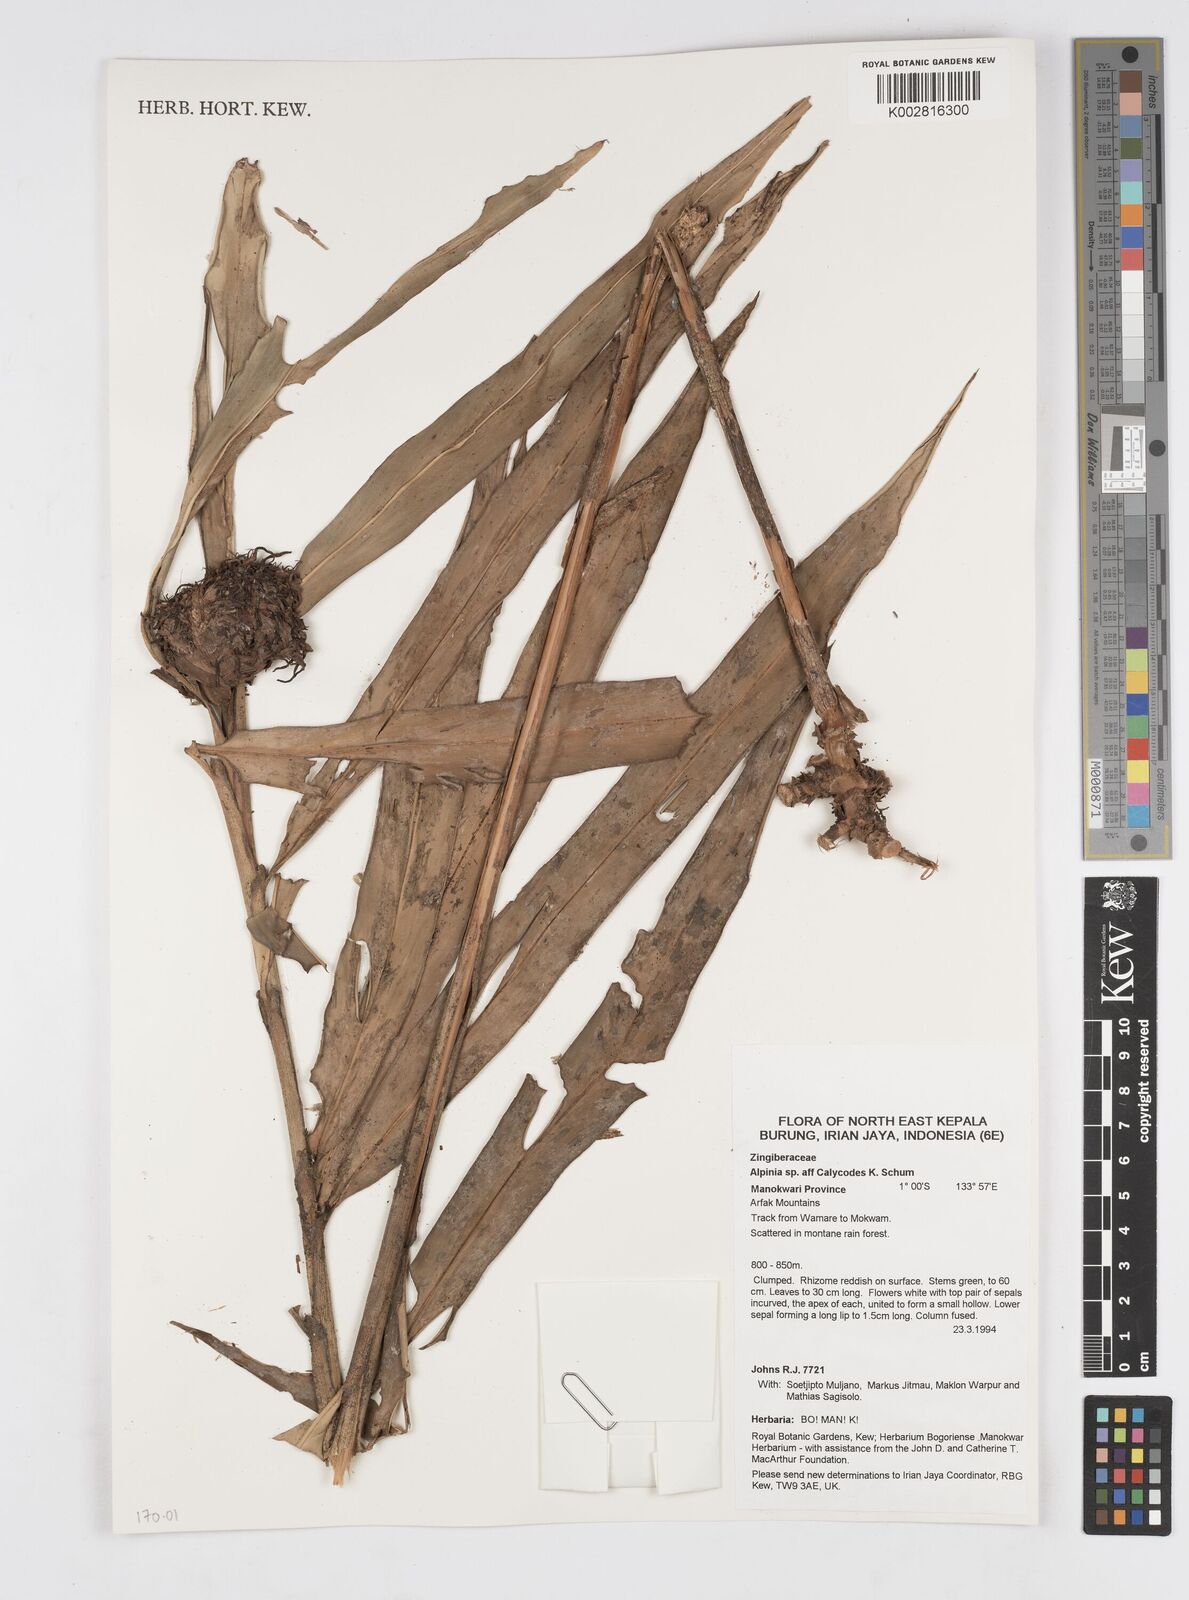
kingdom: Plantae
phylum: Tracheophyta
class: Liliopsida
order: Zingiberales
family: Zingiberaceae
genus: Alpinia
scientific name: Alpinia calycodes
